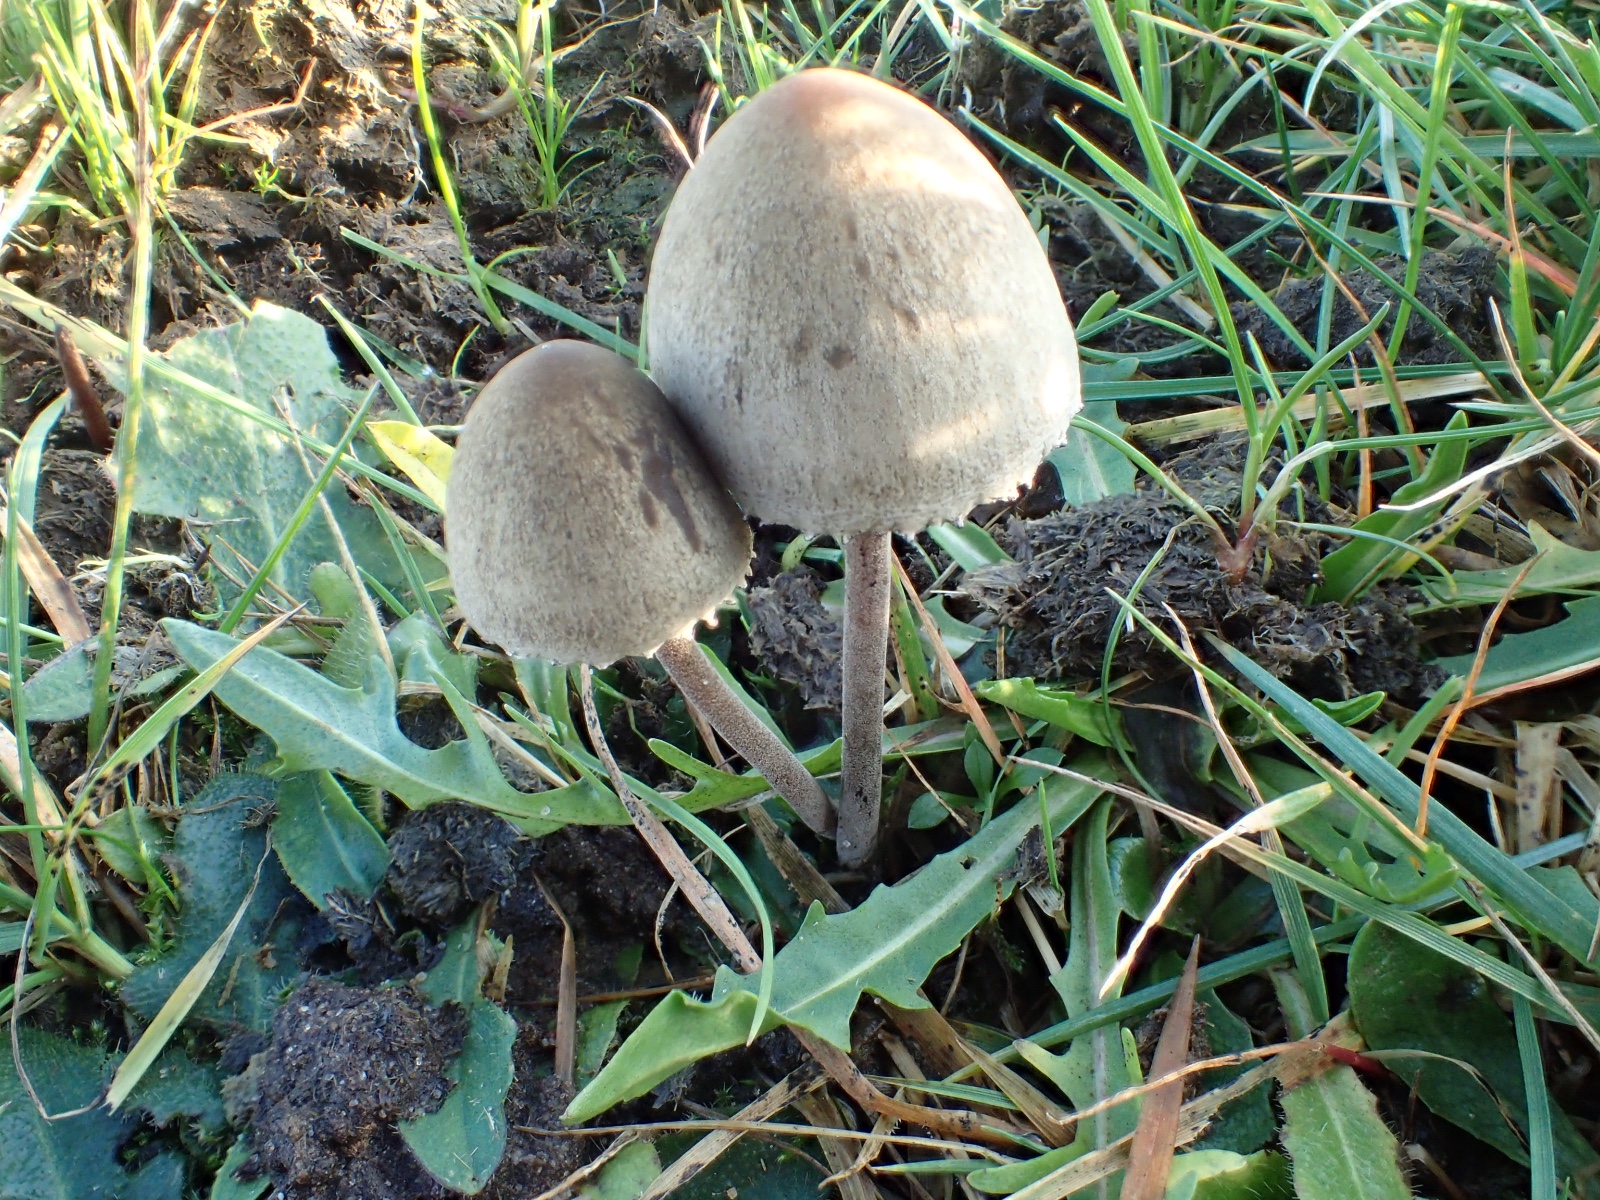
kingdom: Fungi
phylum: Basidiomycota
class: Agaricomycetes
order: Agaricales
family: Bolbitiaceae
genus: Panaeolus
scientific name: Panaeolus papilionaceus
